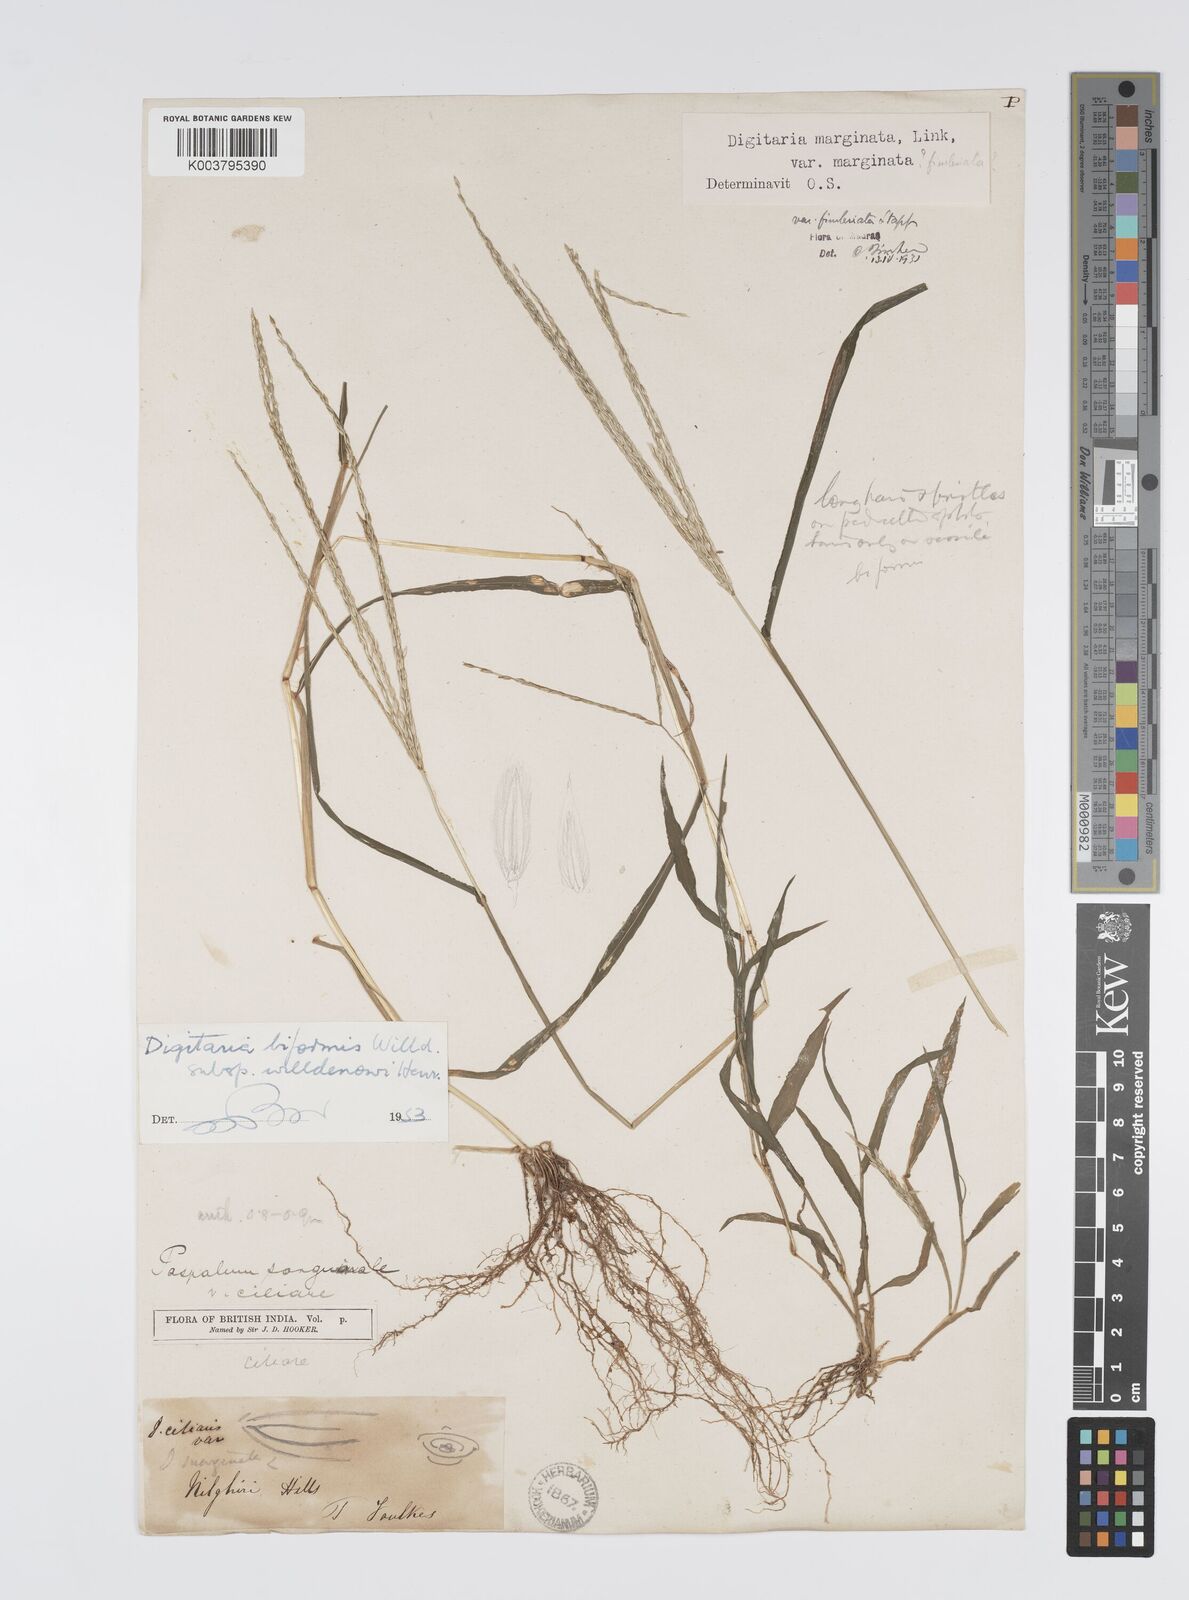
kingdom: Plantae
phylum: Tracheophyta
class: Liliopsida
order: Poales
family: Poaceae
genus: Digitaria
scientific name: Digitaria ciliaris
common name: Tropical finger-grass
